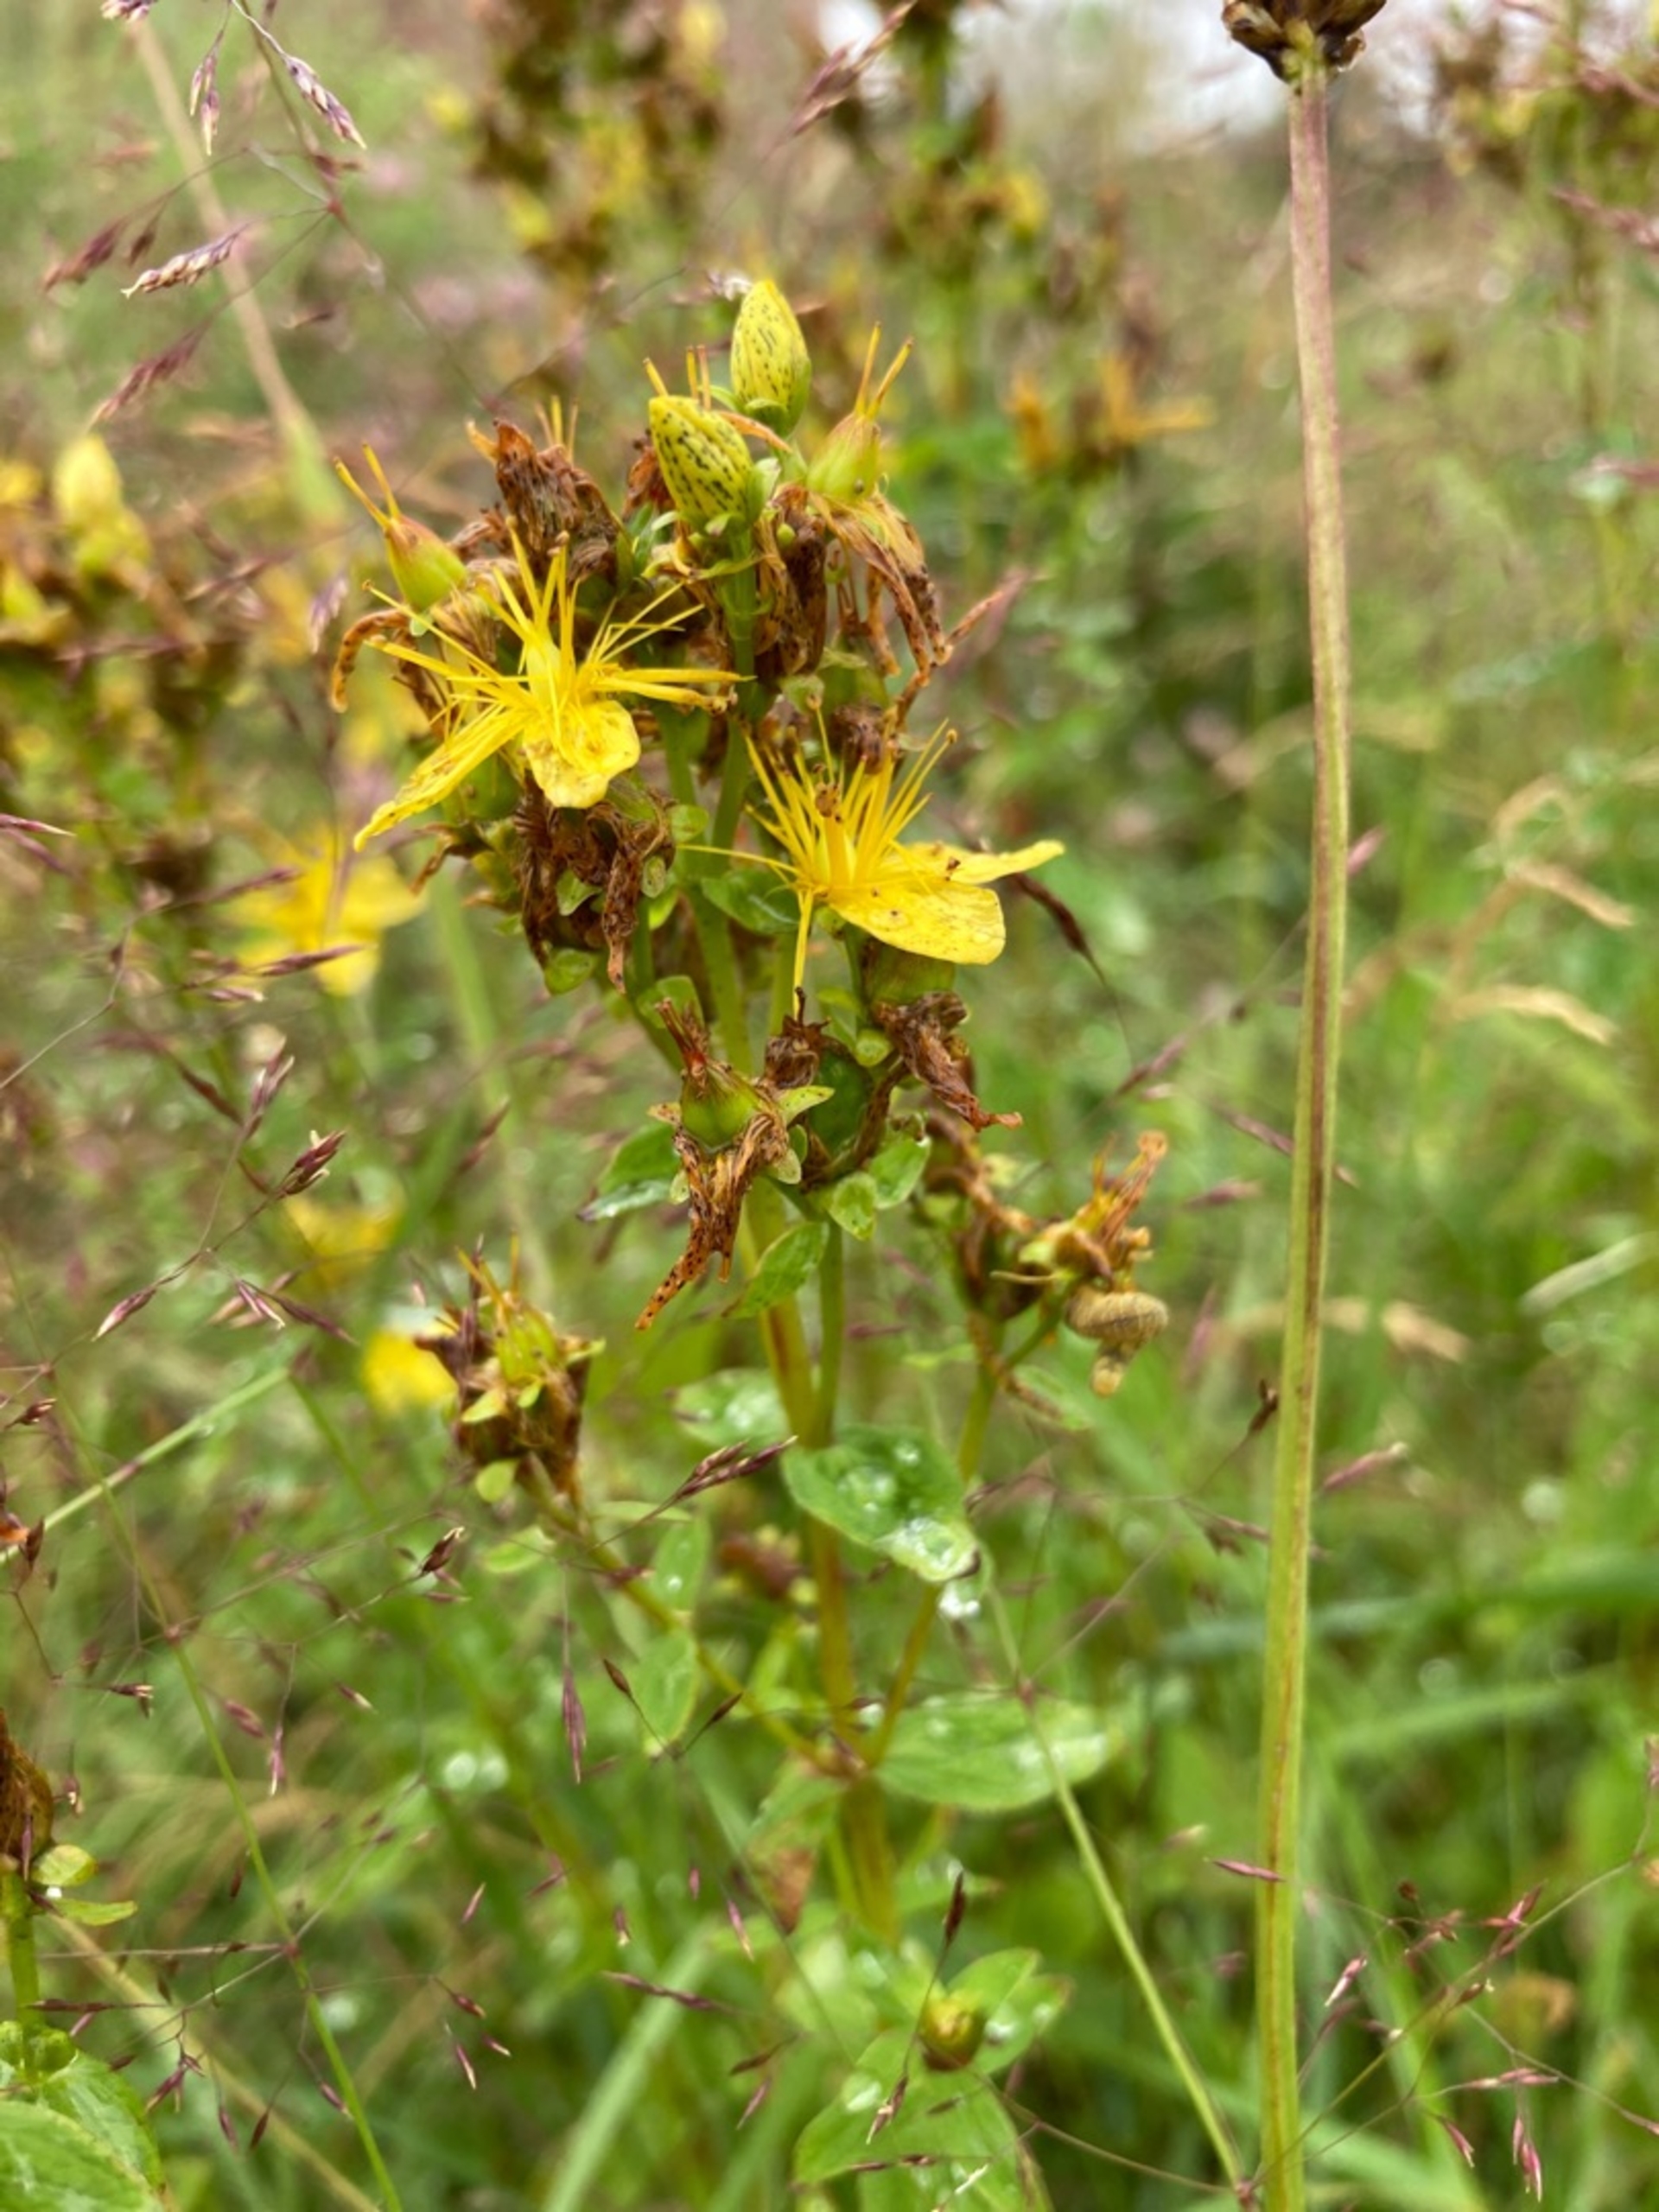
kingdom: Plantae
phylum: Tracheophyta
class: Magnoliopsida
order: Malpighiales
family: Hypericaceae
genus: Hypericum
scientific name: Hypericum maculatum
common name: Kantet perikon
